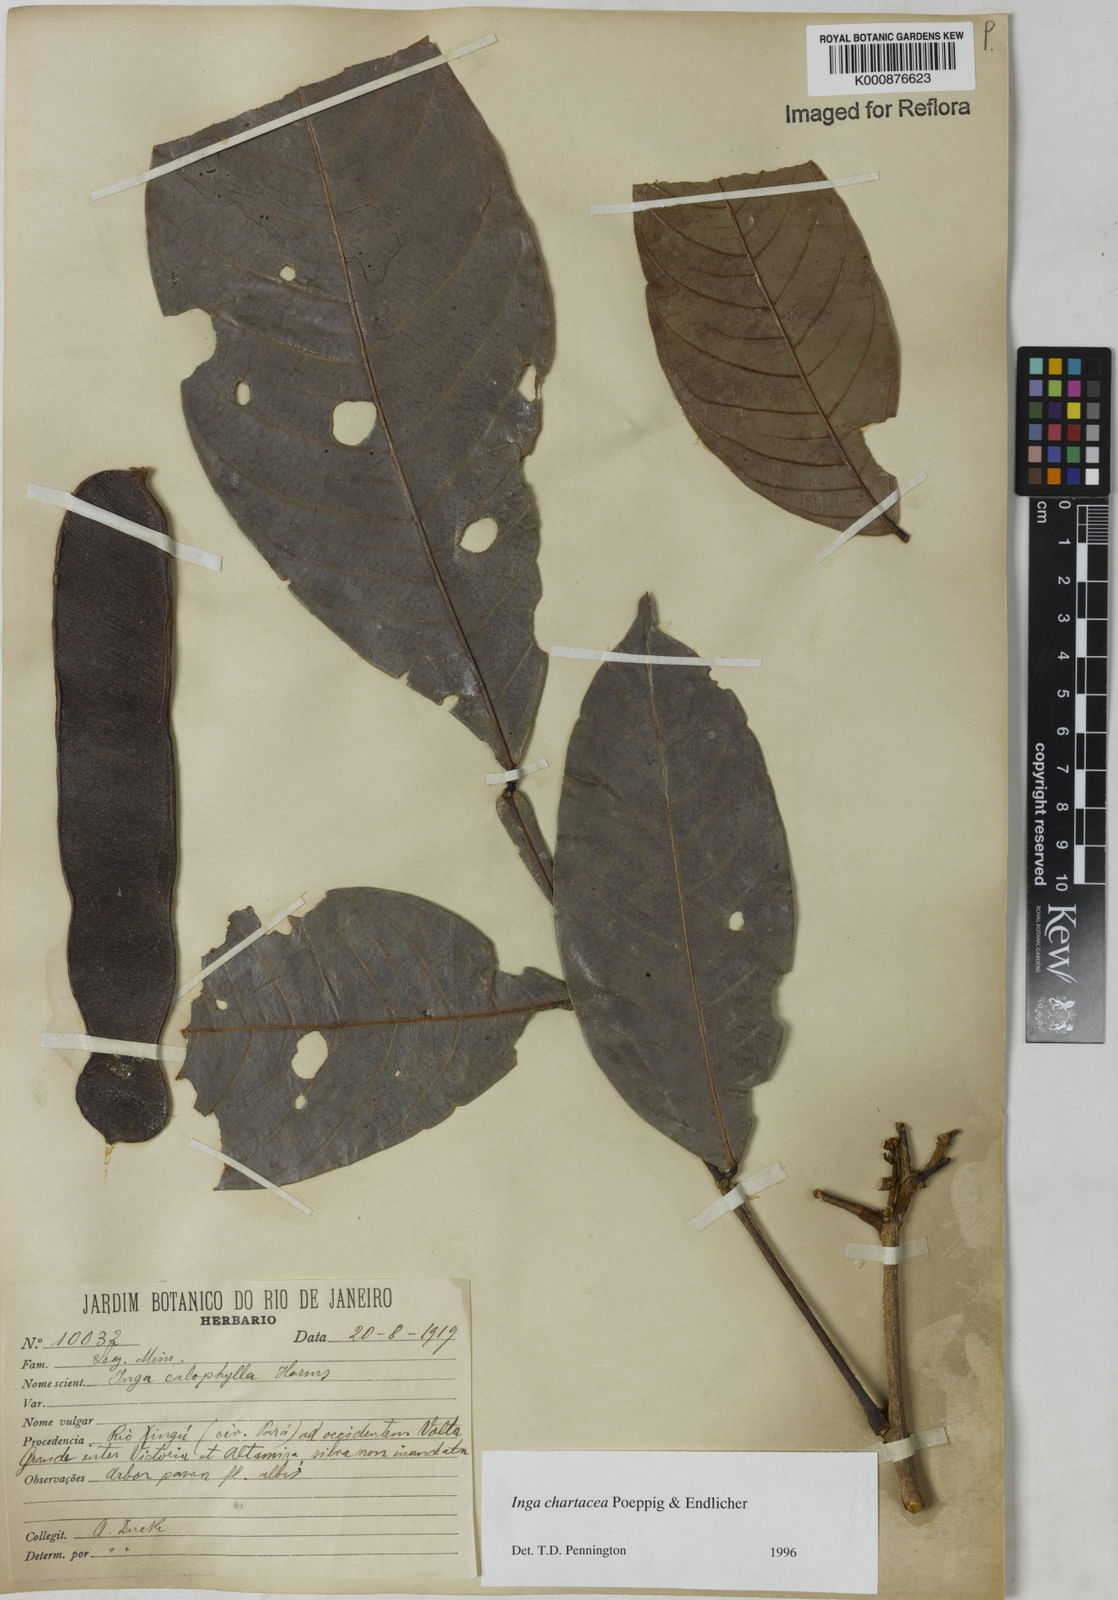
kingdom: Plantae
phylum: Tracheophyta
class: Magnoliopsida
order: Fabales
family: Fabaceae
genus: Inga
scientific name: Inga chartacea
